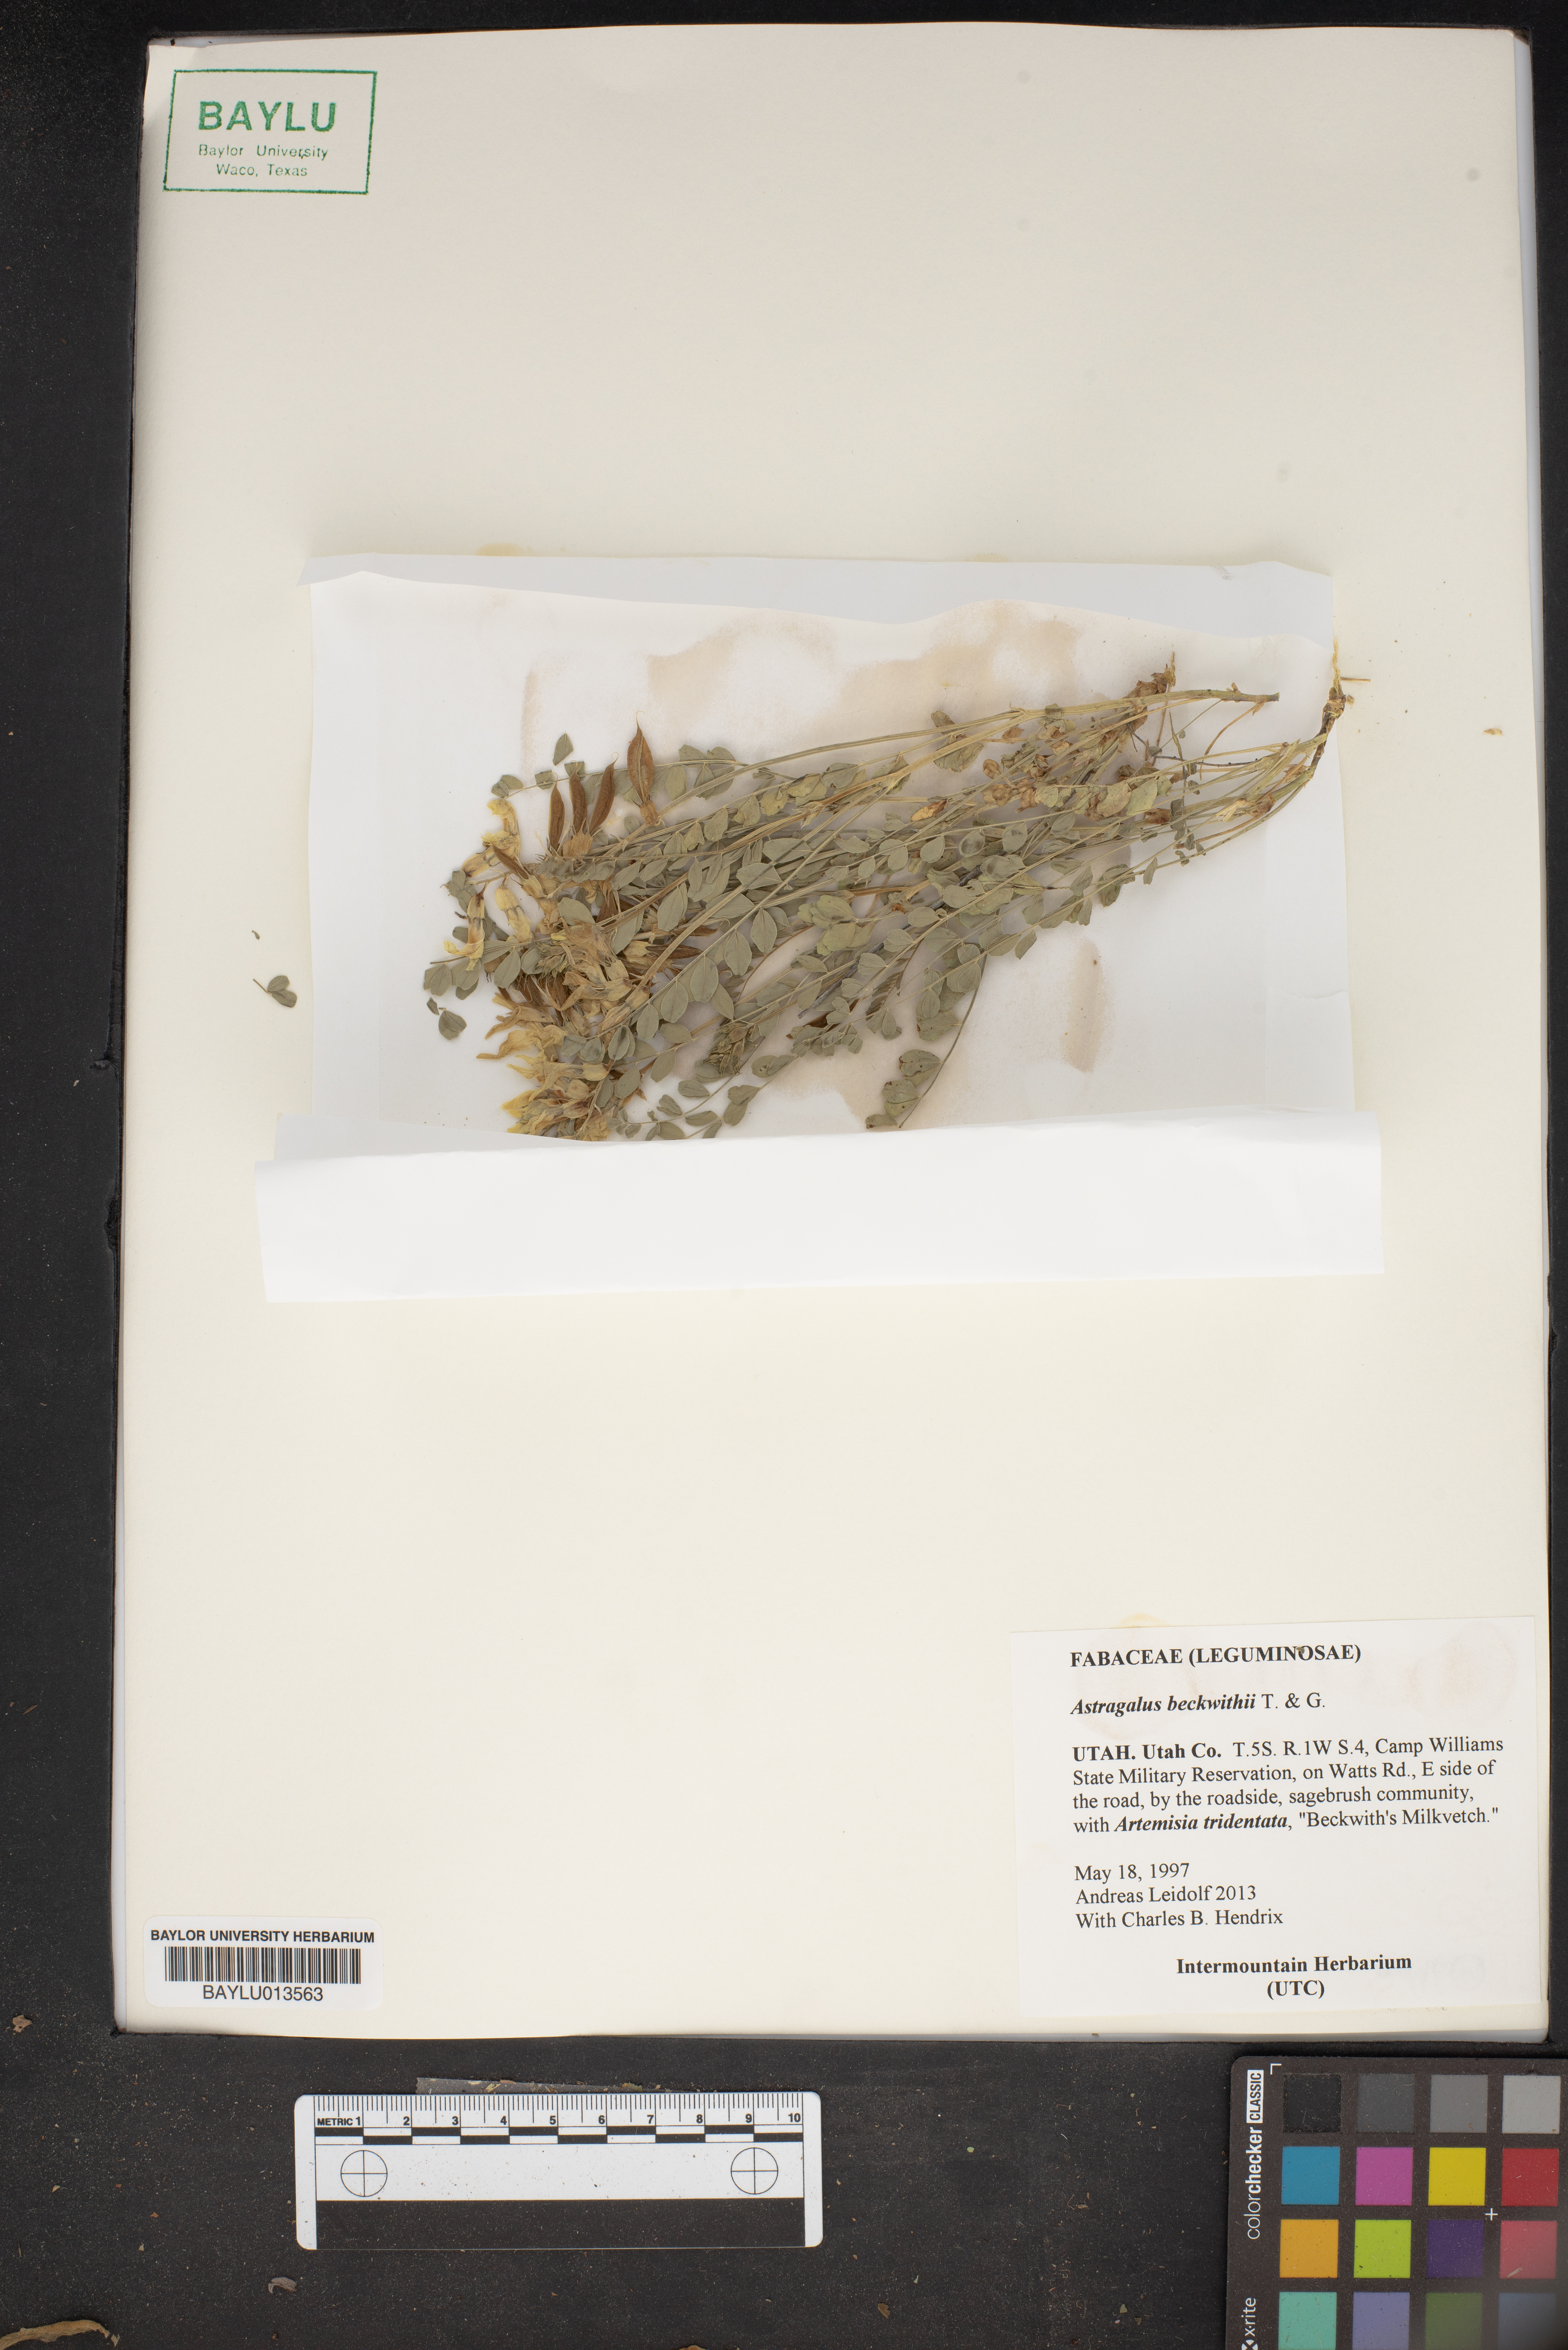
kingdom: Plantae
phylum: Tracheophyta
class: Magnoliopsida
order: Fabales
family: Fabaceae
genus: Astragalus
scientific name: Astragalus beckwithii
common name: Beckwith's milk-vetch
